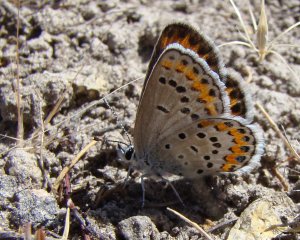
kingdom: Animalia
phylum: Arthropoda
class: Insecta
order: Lepidoptera
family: Lycaenidae
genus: Lycaeides
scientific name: Lycaeides melissa
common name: Melissa Blue
